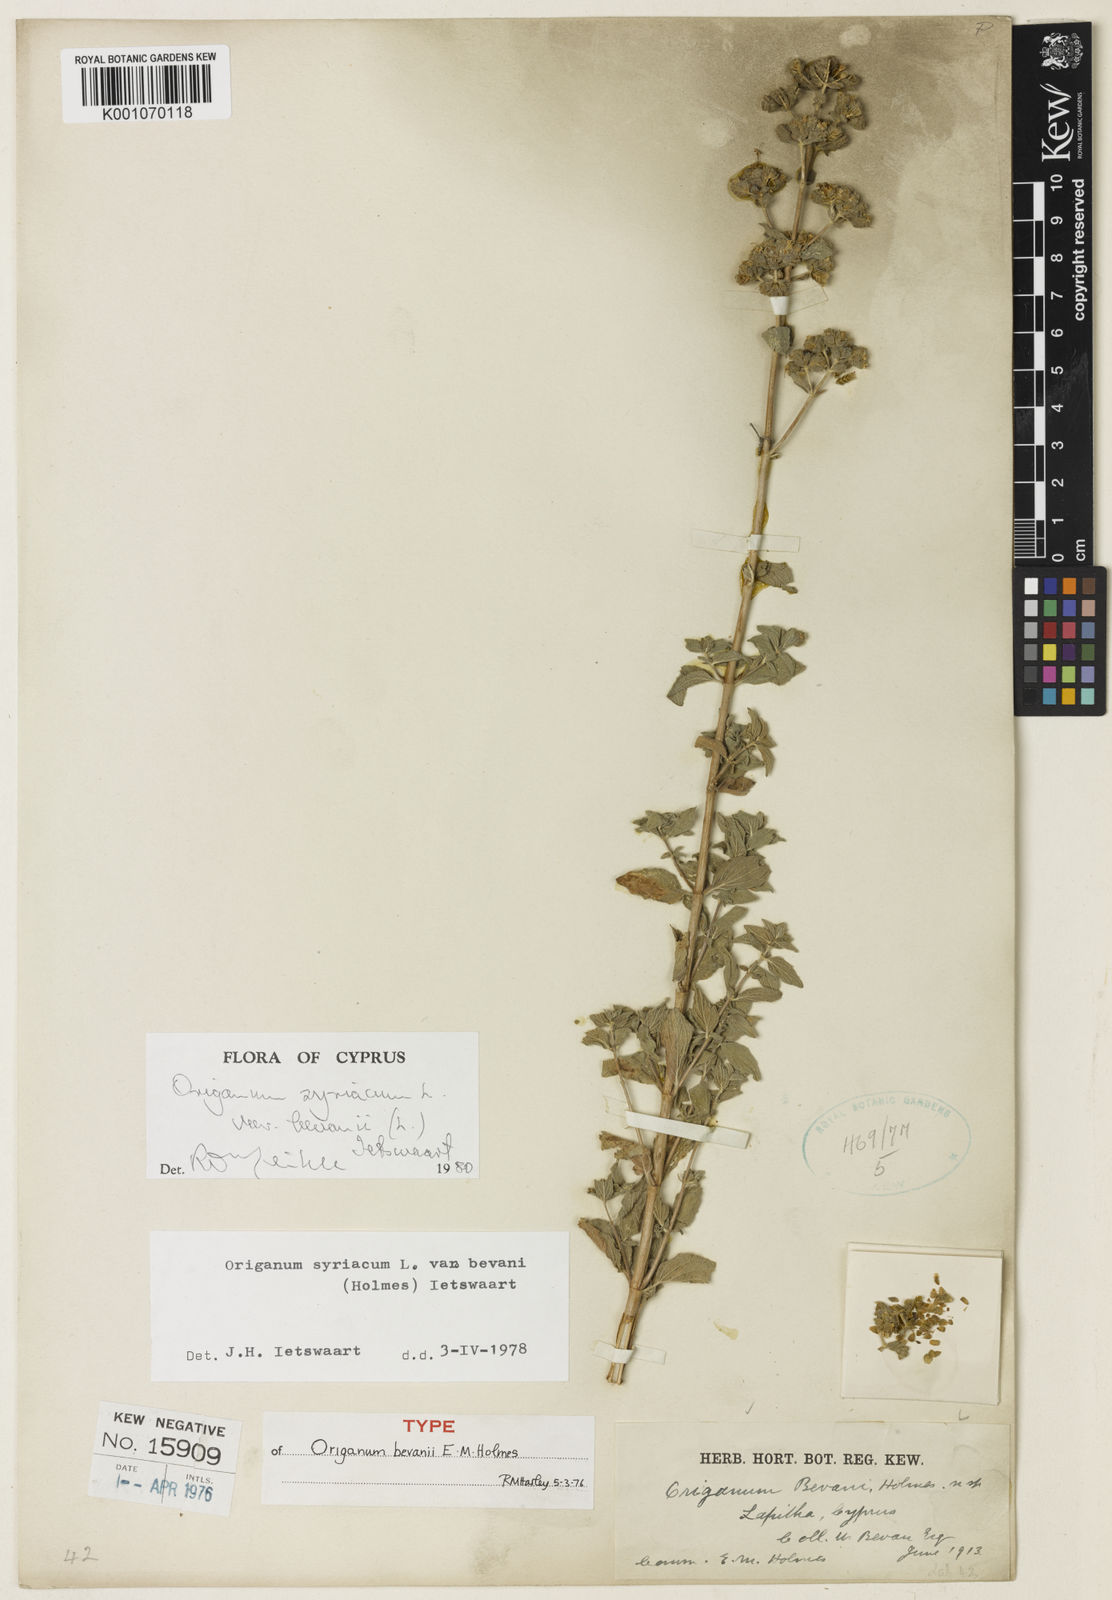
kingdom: Plantae
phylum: Tracheophyta
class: Magnoliopsida
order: Lamiales
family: Lamiaceae
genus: Origanum
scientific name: Origanum syriacum
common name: Biblical-hyssop
